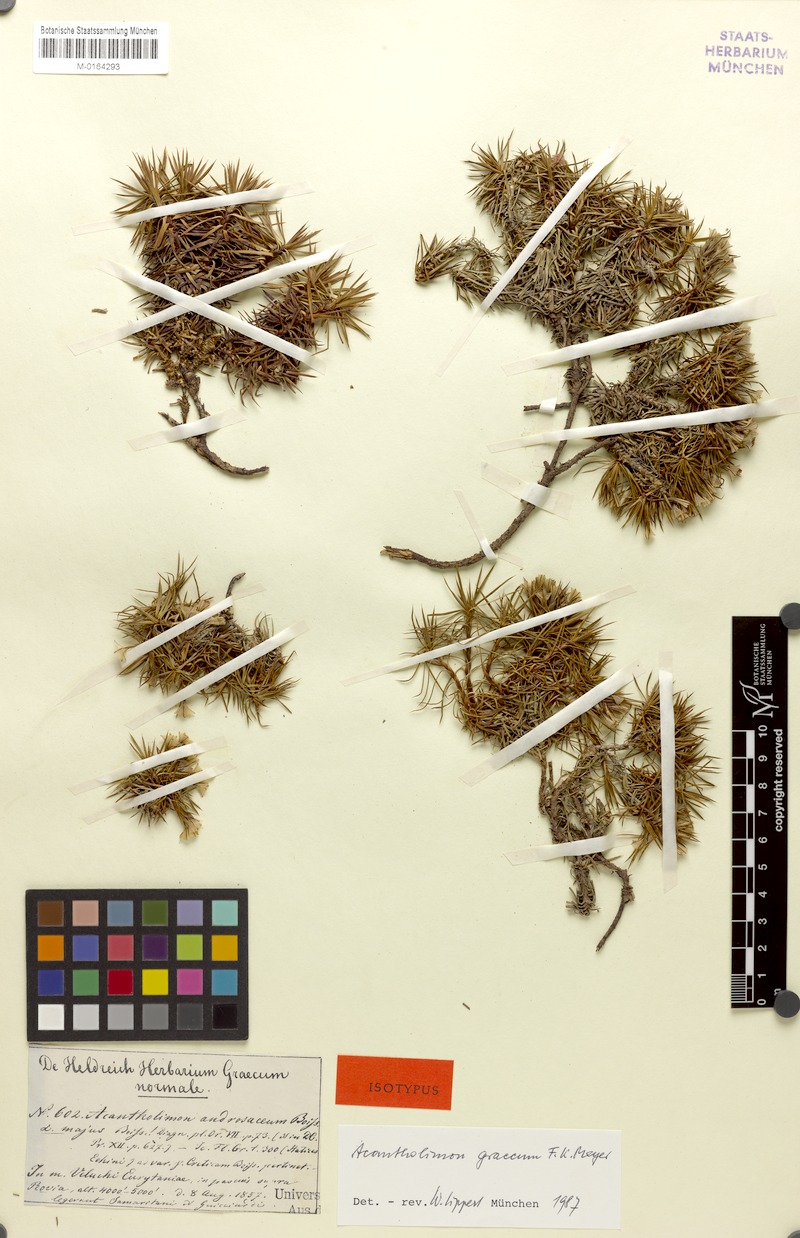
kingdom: Plantae
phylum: Tracheophyta
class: Magnoliopsida
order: Caryophyllales
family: Plumbaginaceae
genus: Acantholimon
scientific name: Acantholimon ulicinum
